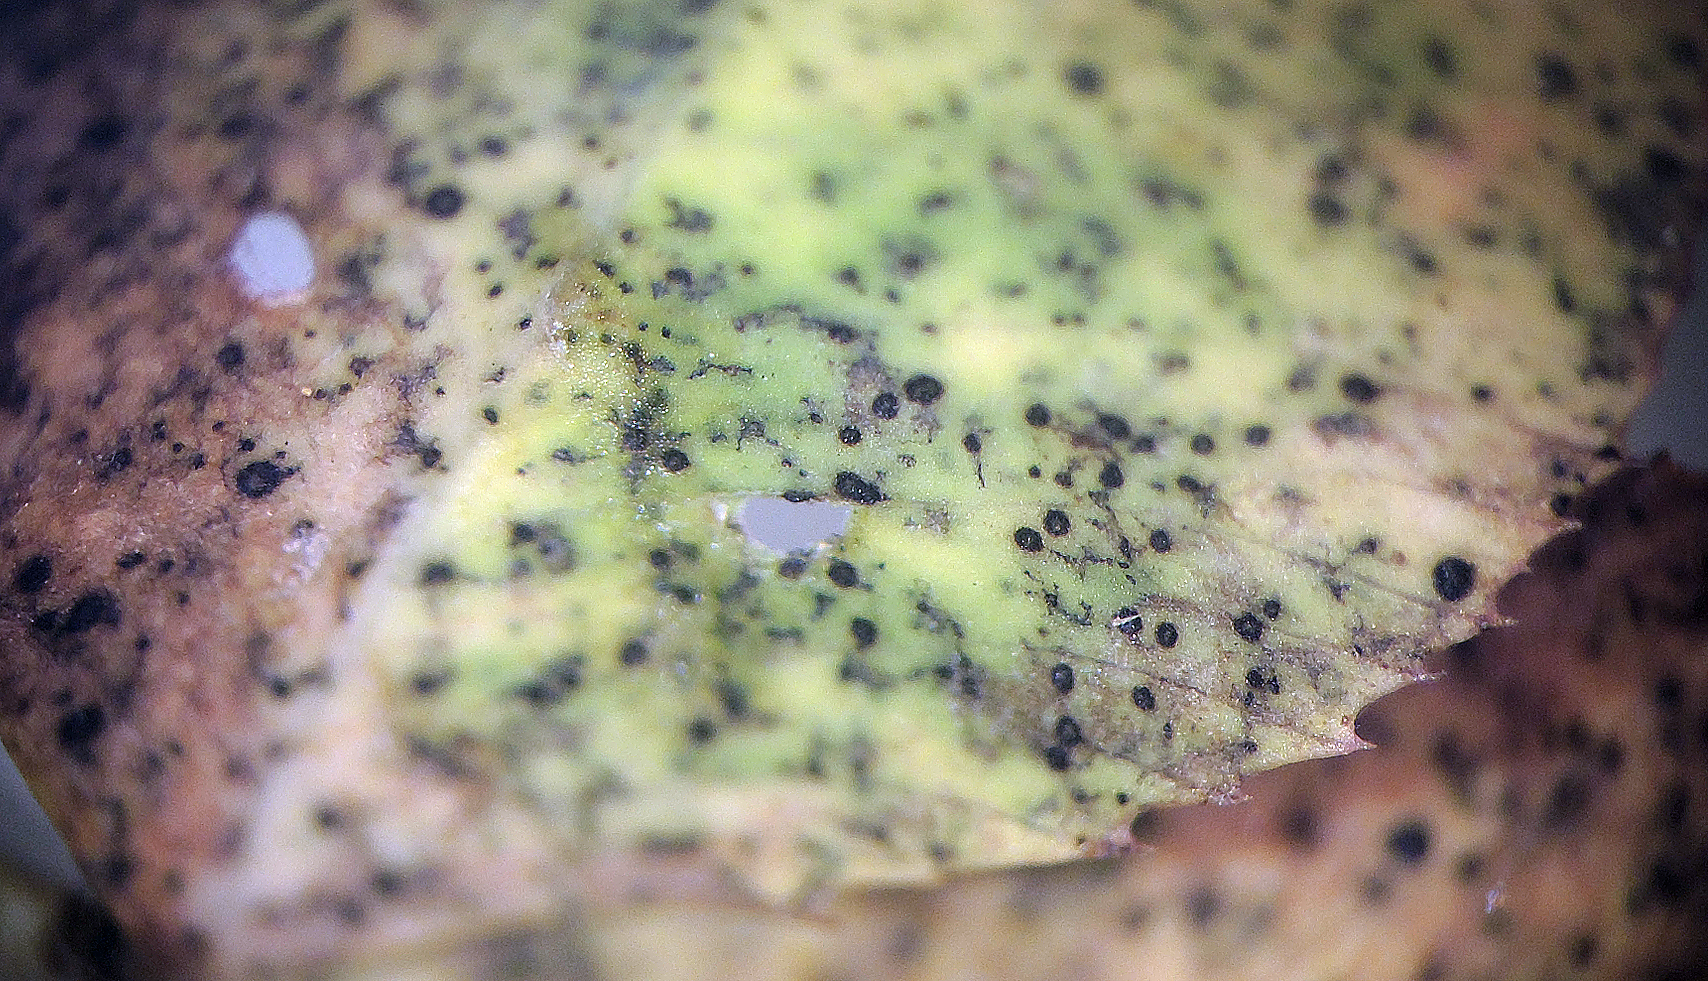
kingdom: Fungi
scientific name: Fungi
